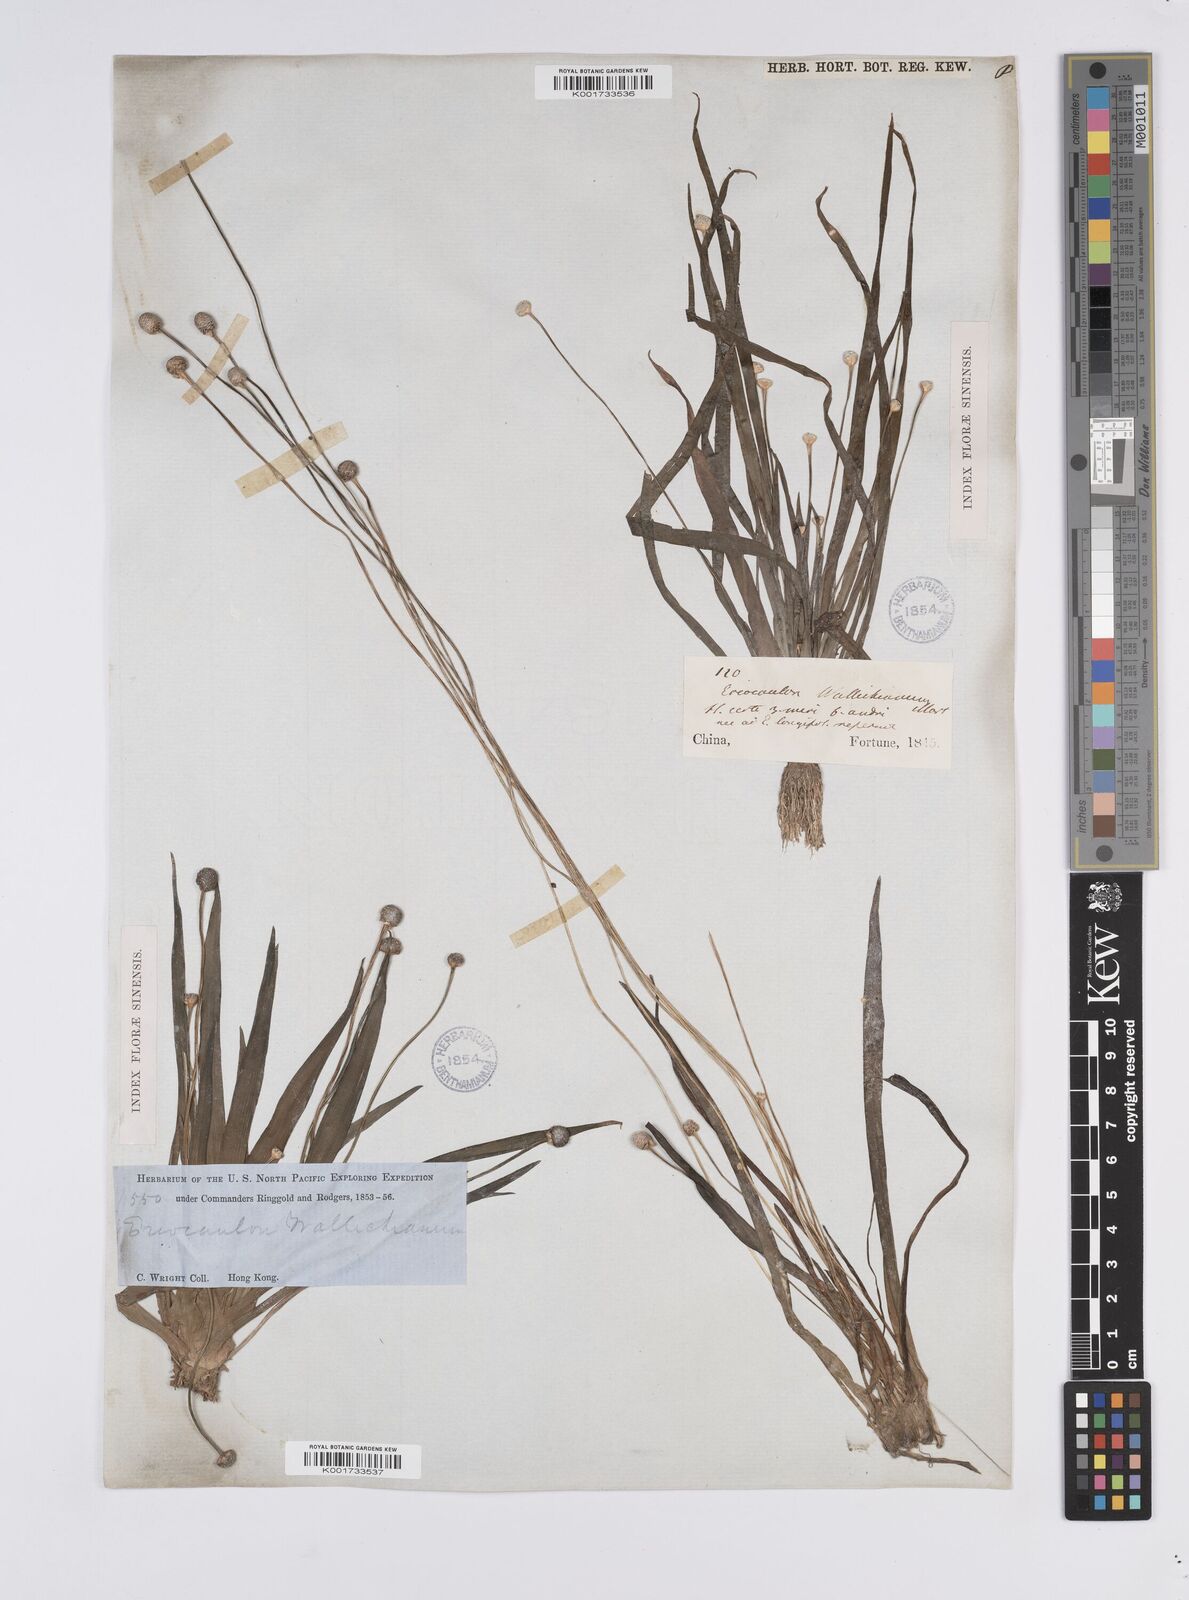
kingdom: Plantae
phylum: Tracheophyta
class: Liliopsida
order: Poales
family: Eriocaulaceae
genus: Eriocaulon
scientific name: Eriocaulon sexangulare
